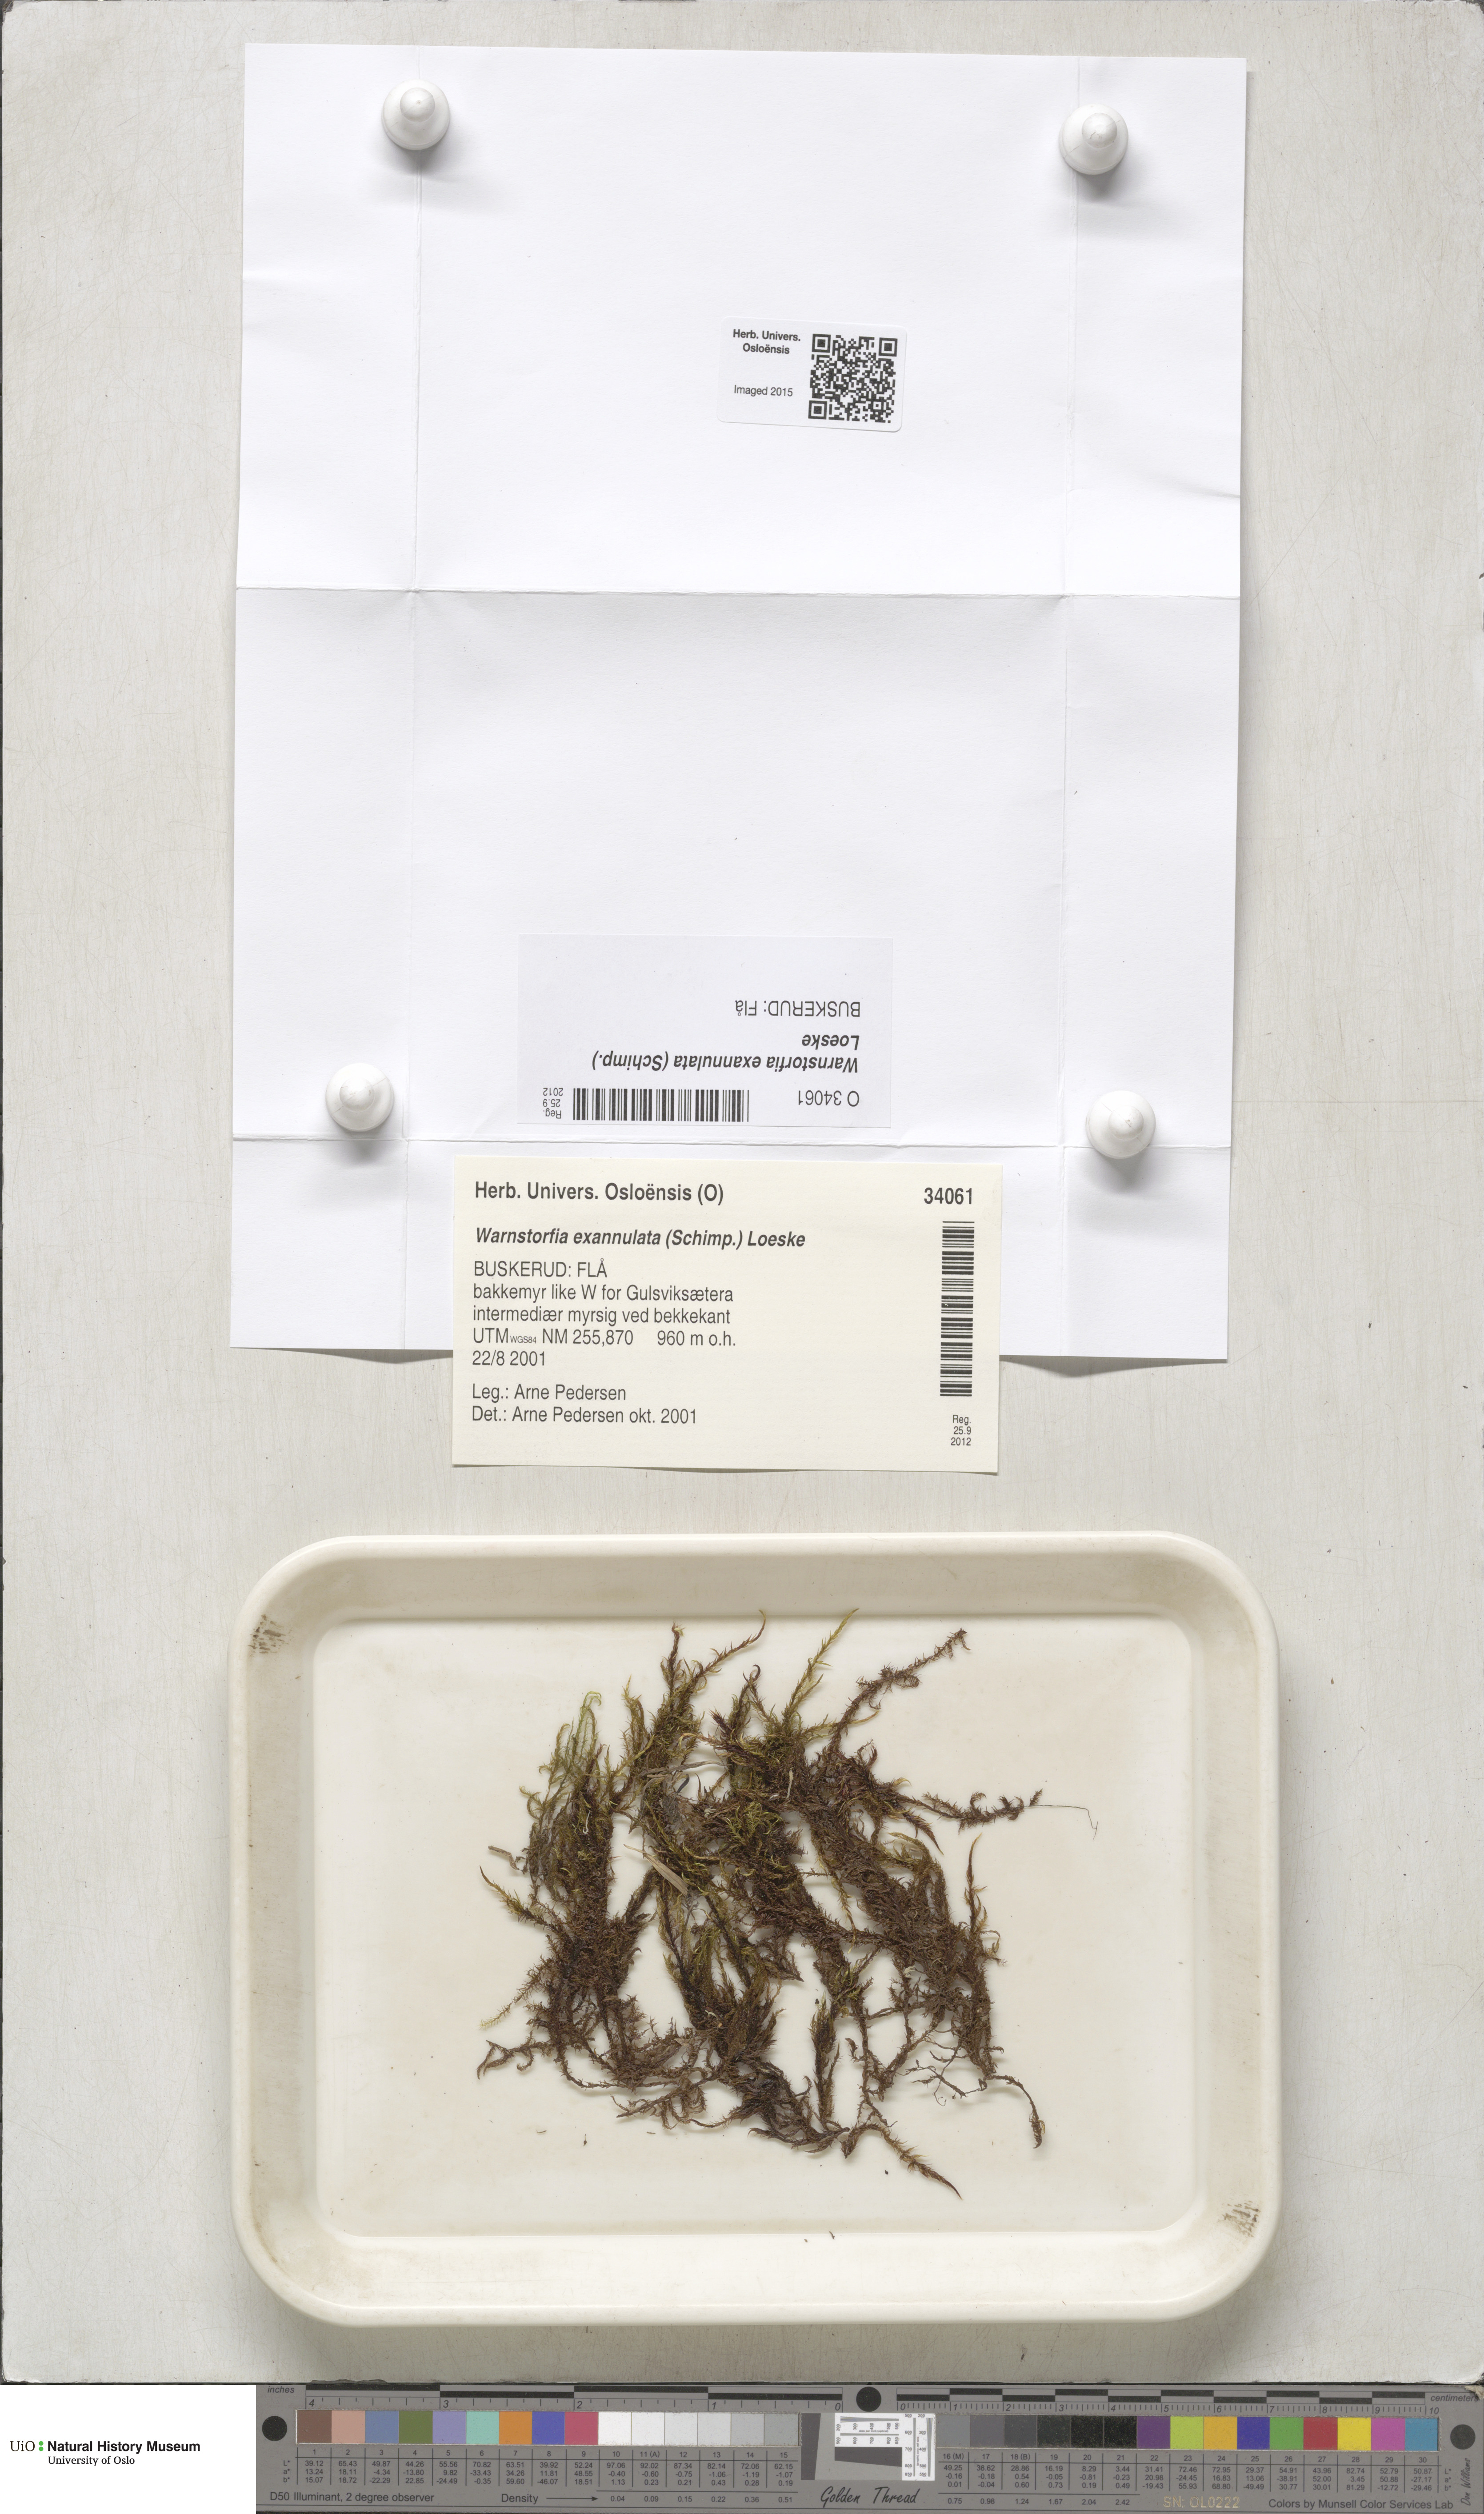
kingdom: Plantae
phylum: Bryophyta
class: Bryopsida
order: Hypnales
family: Calliergonaceae
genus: Sarmentypnum
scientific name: Sarmentypnum exannulatum
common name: Ringless spoon moss
